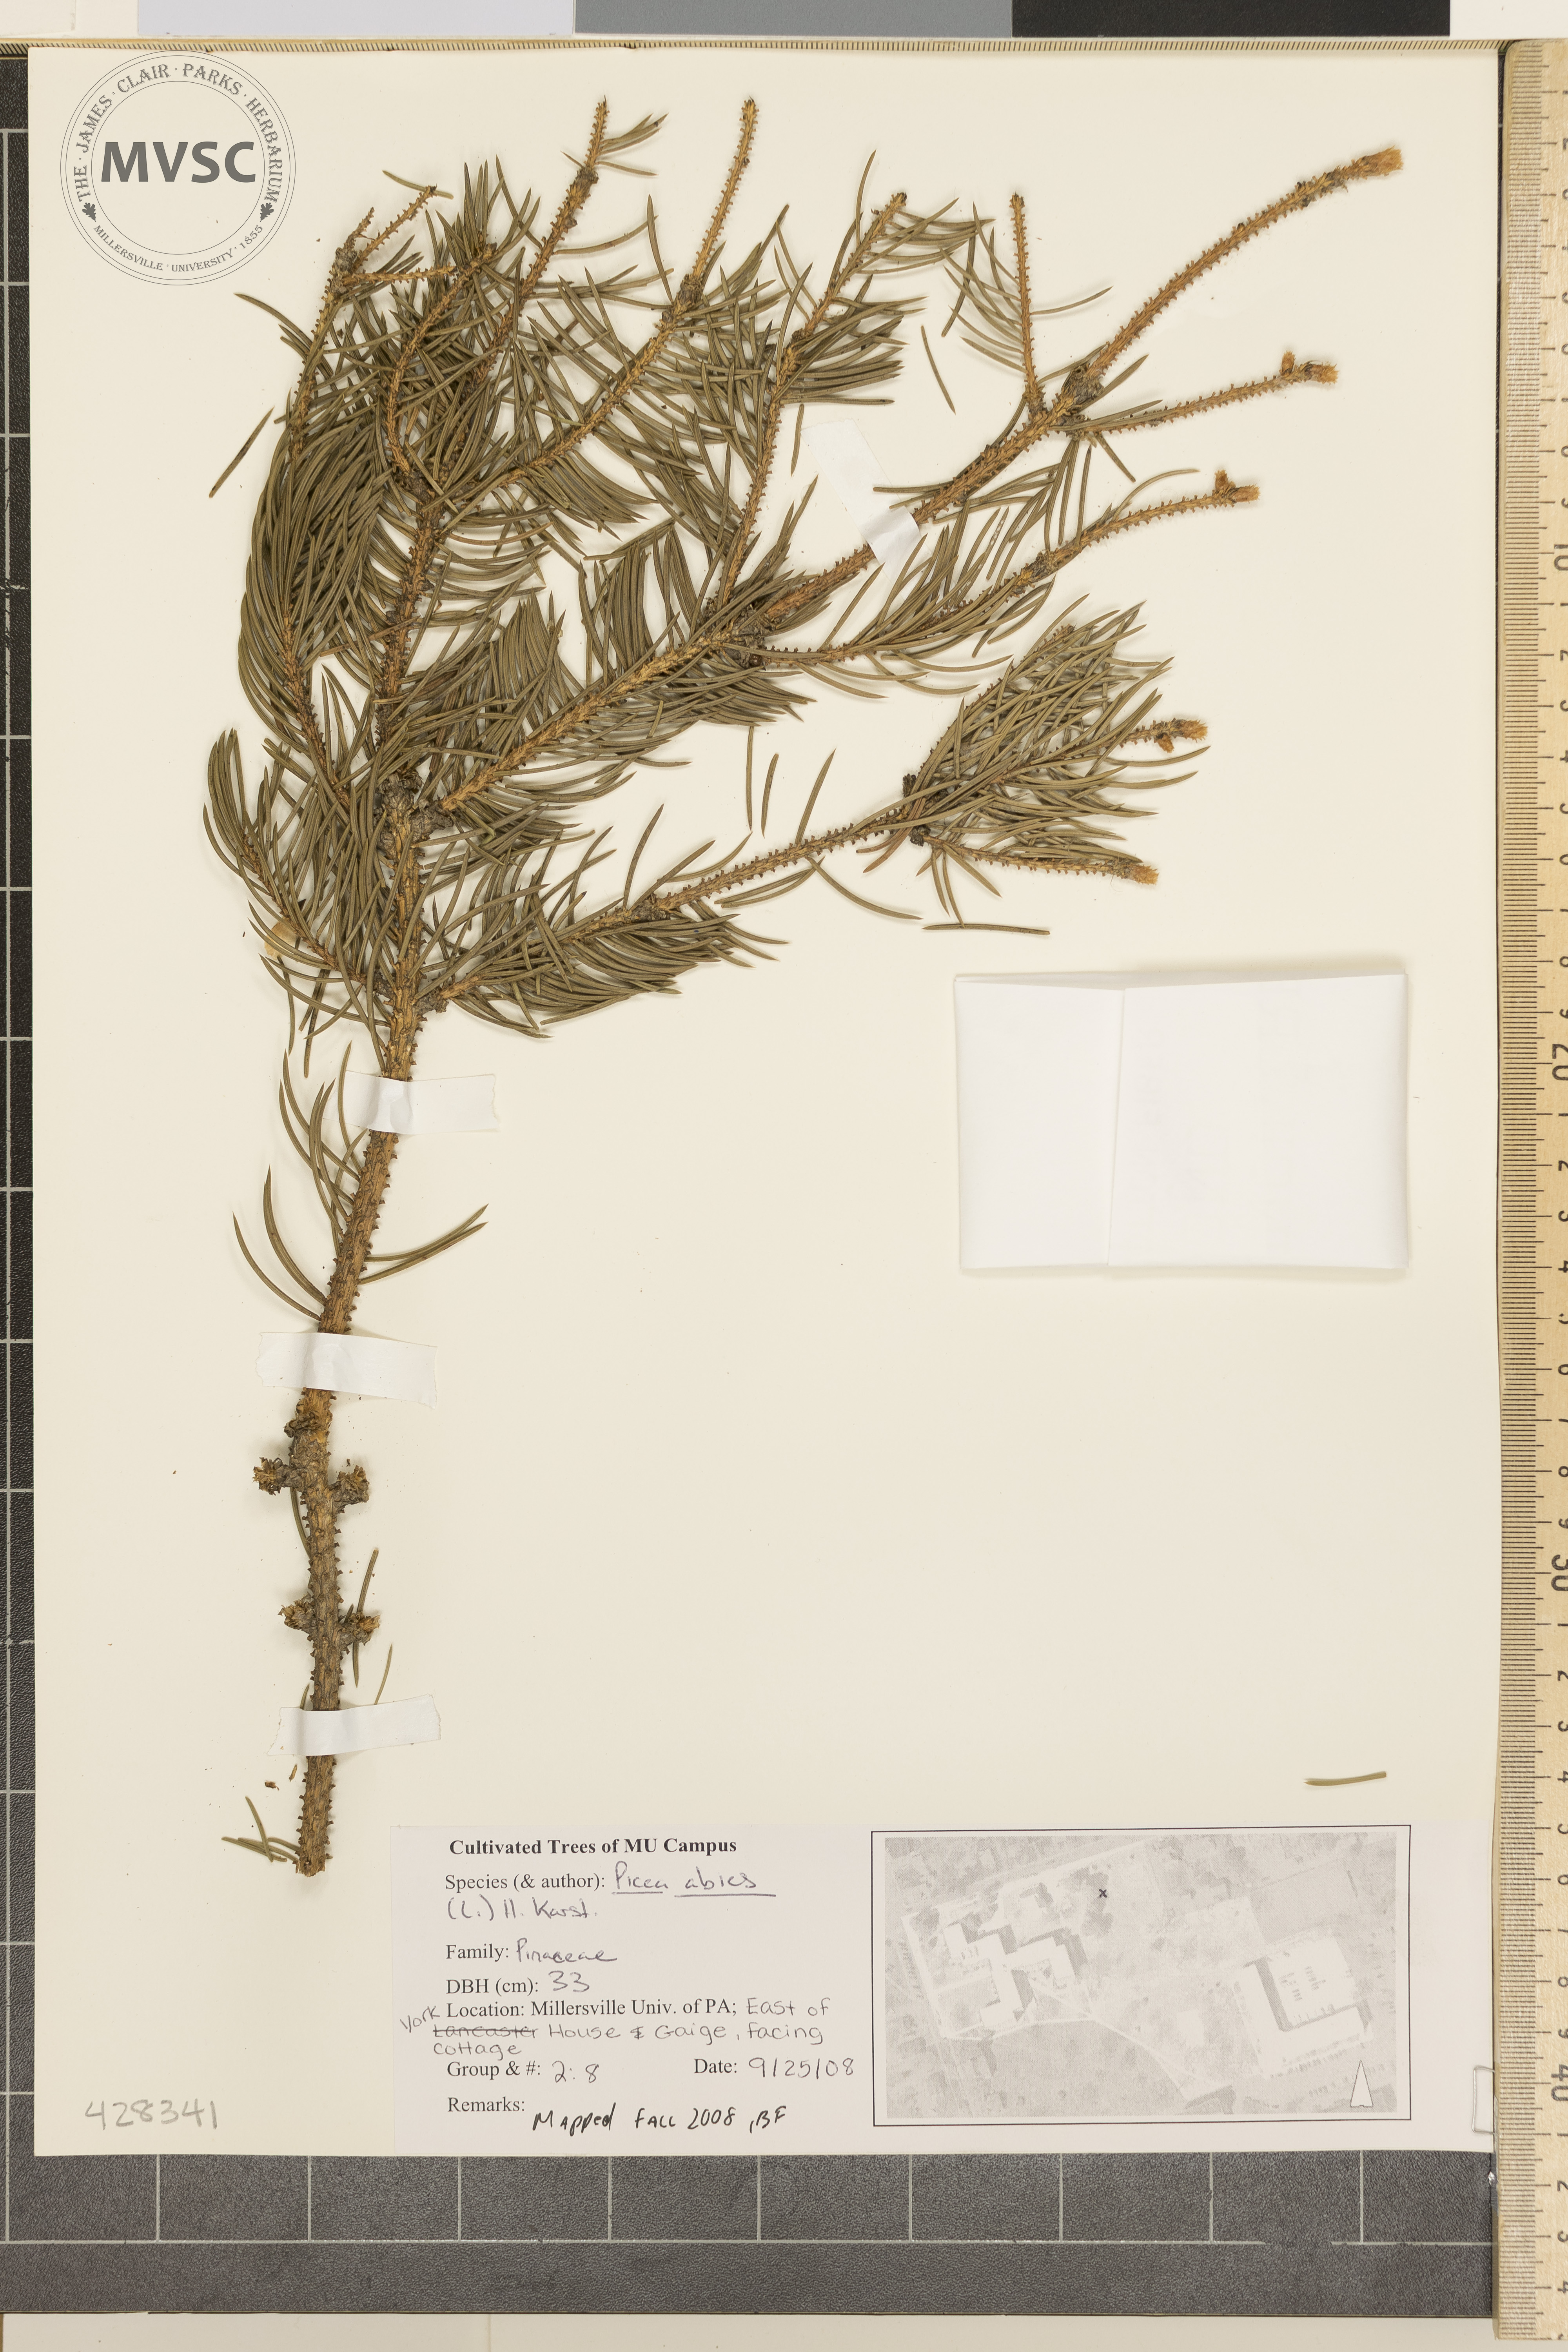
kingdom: Plantae
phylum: Tracheophyta
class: Pinopsida
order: Pinales
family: Pinaceae
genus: Picea
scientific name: Picea abies
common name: Norway Spruce
